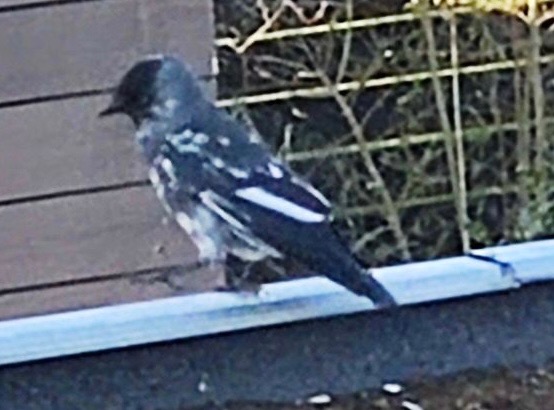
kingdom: Animalia
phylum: Chordata
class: Aves
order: Passeriformes
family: Corvidae
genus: Coloeus
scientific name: Coloeus monedula
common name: Allike
